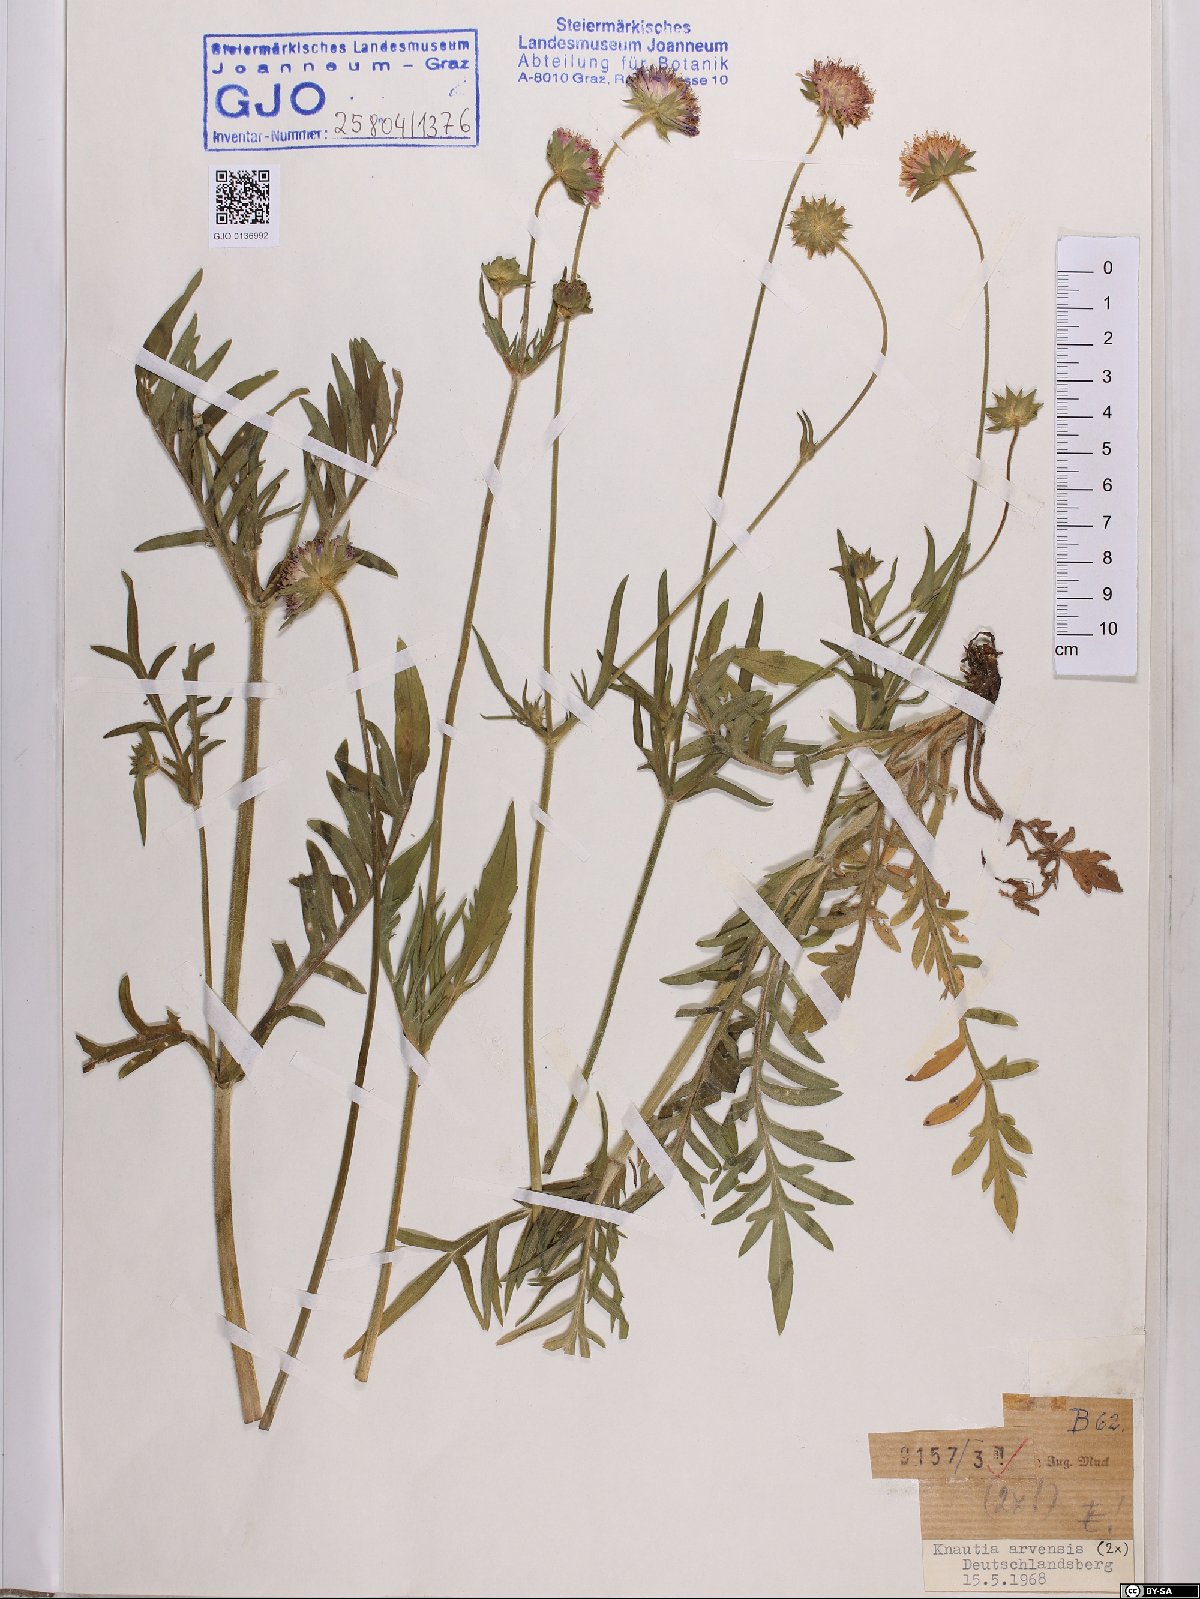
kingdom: Plantae
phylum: Tracheophyta
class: Magnoliopsida
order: Dipsacales
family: Caprifoliaceae
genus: Knautia
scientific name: Knautia arvensis
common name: Field scabiosa
